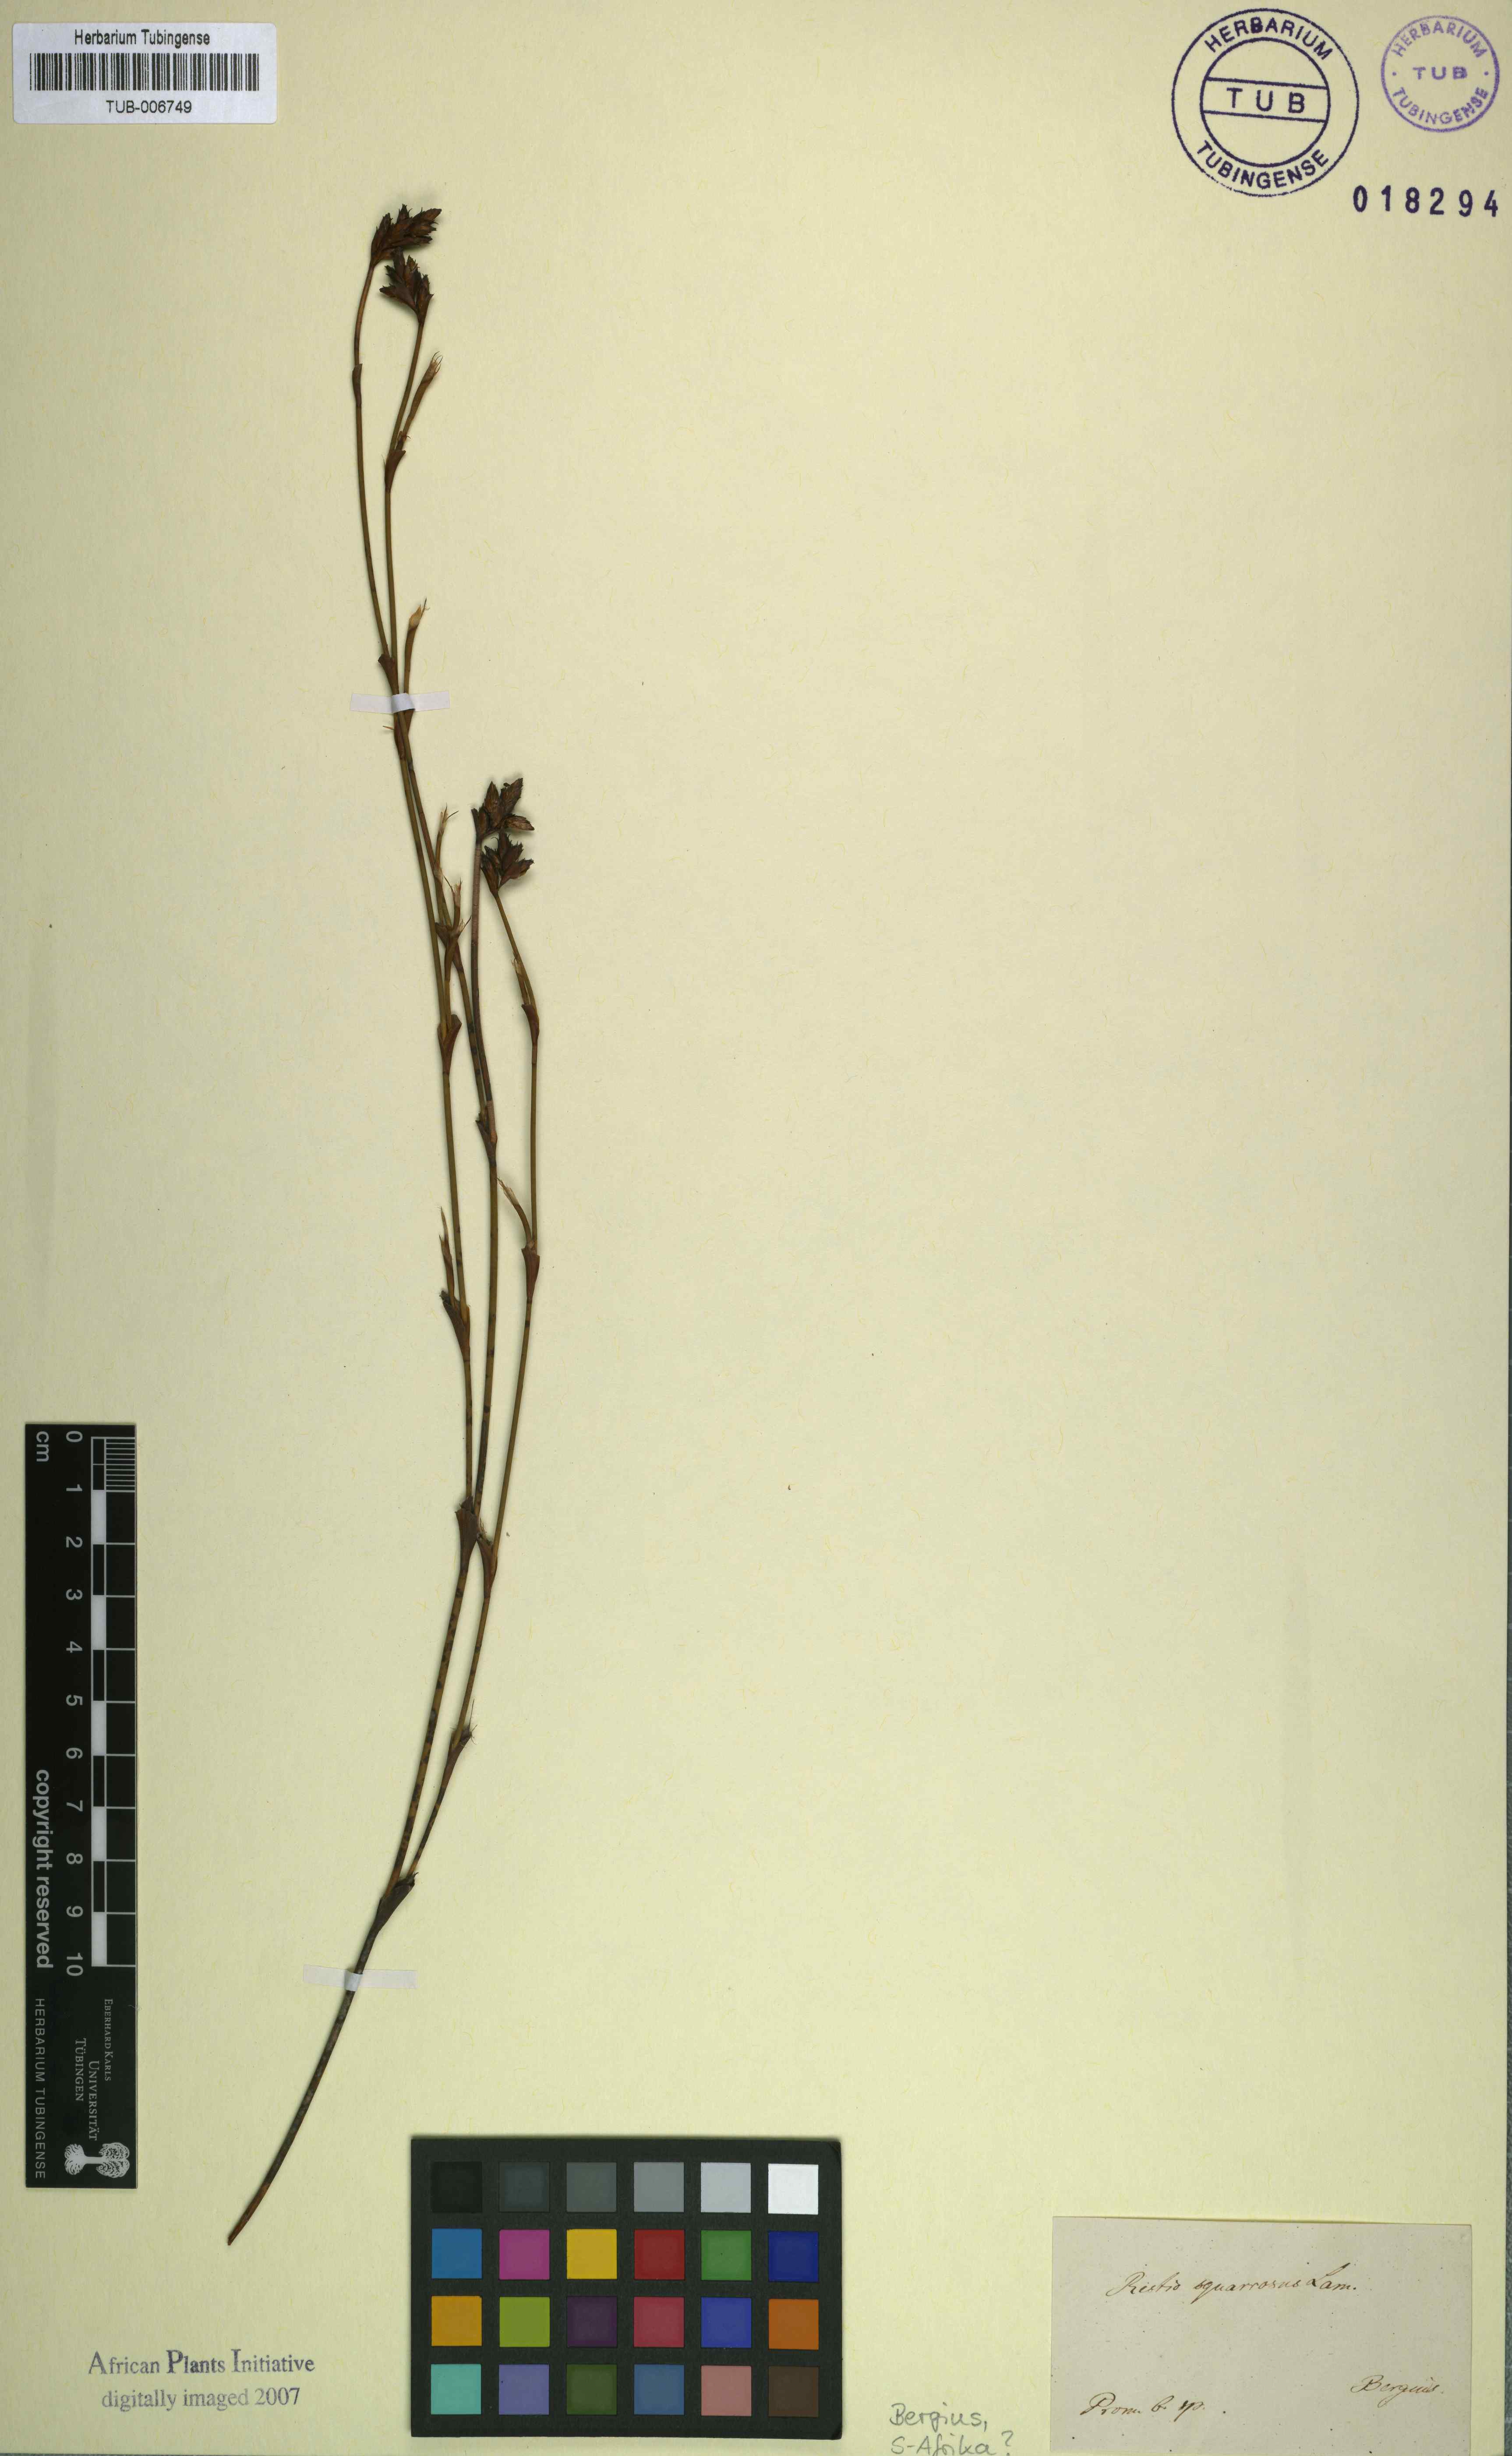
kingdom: Plantae
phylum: Tracheophyta
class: Liliopsida
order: Poales
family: Restionaceae
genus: Restio
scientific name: Restio capensis
